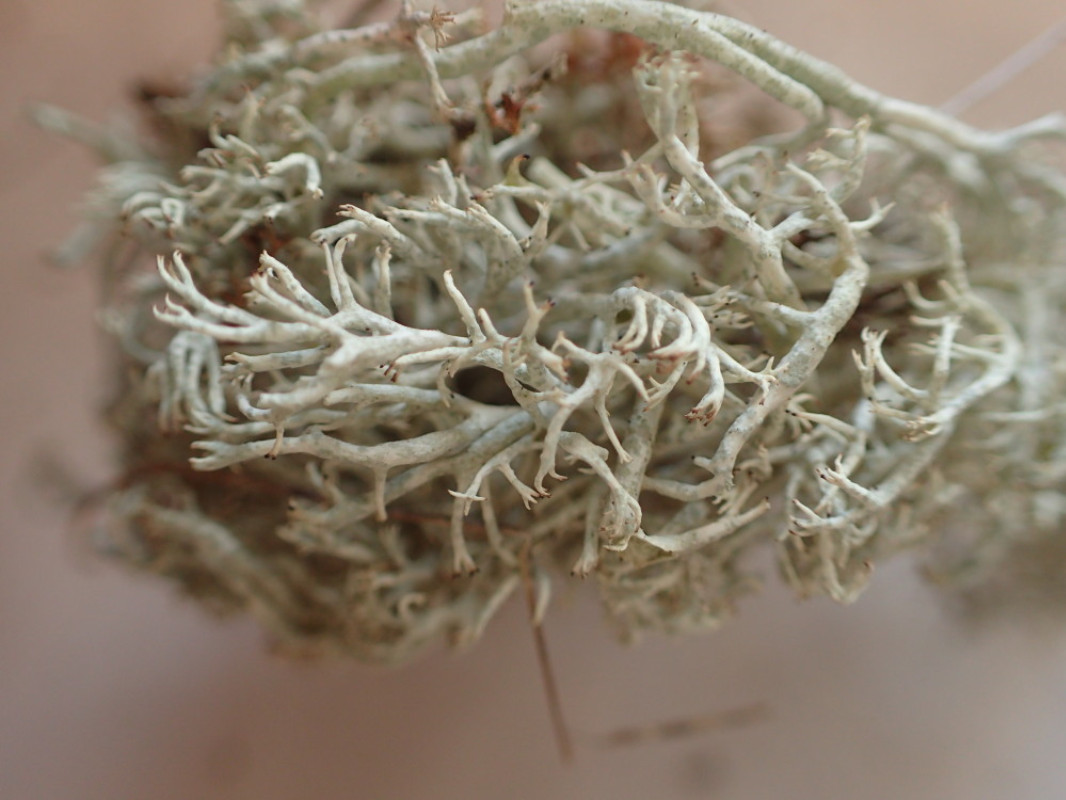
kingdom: Fungi
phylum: Ascomycota
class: Lecanoromycetes
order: Lecanorales
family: Cladoniaceae
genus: Cladonia
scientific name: Cladonia mitis
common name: mild rensdyrlav
